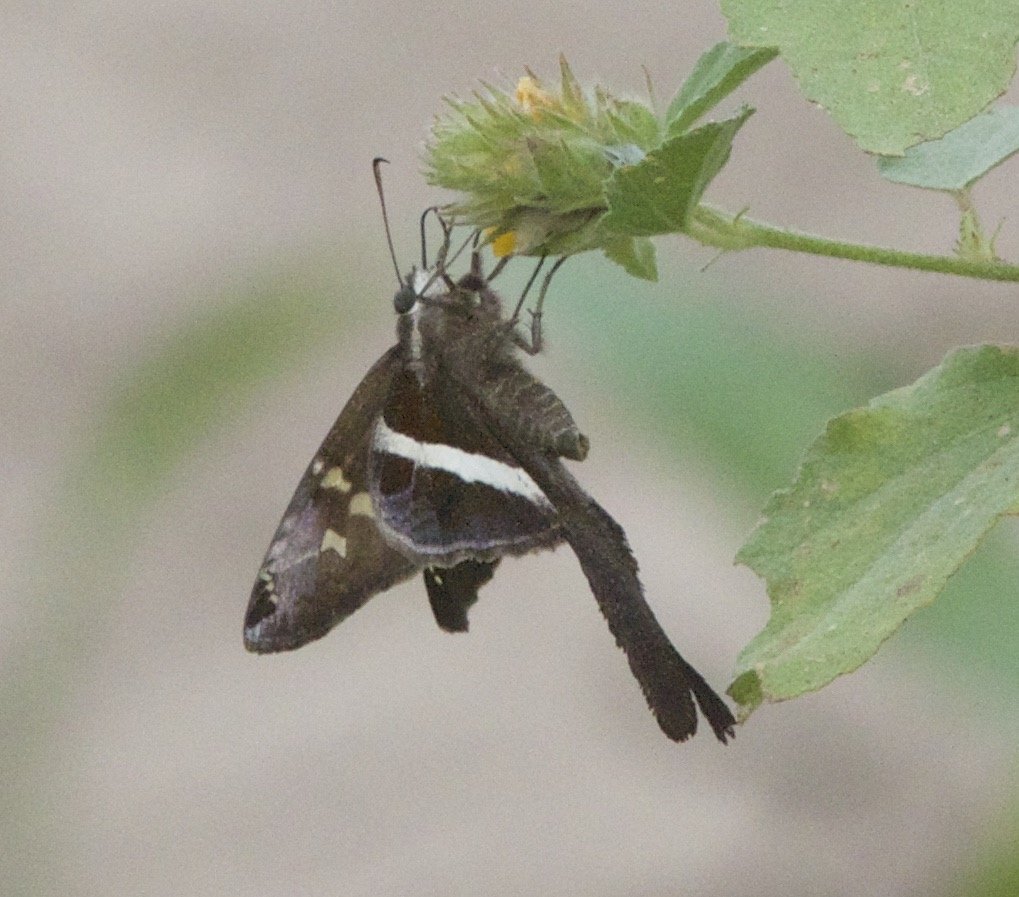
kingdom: Animalia
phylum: Arthropoda
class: Insecta
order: Lepidoptera
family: Hesperiidae
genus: Chioides
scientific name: Chioides catillus
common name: White-striped Longtail
